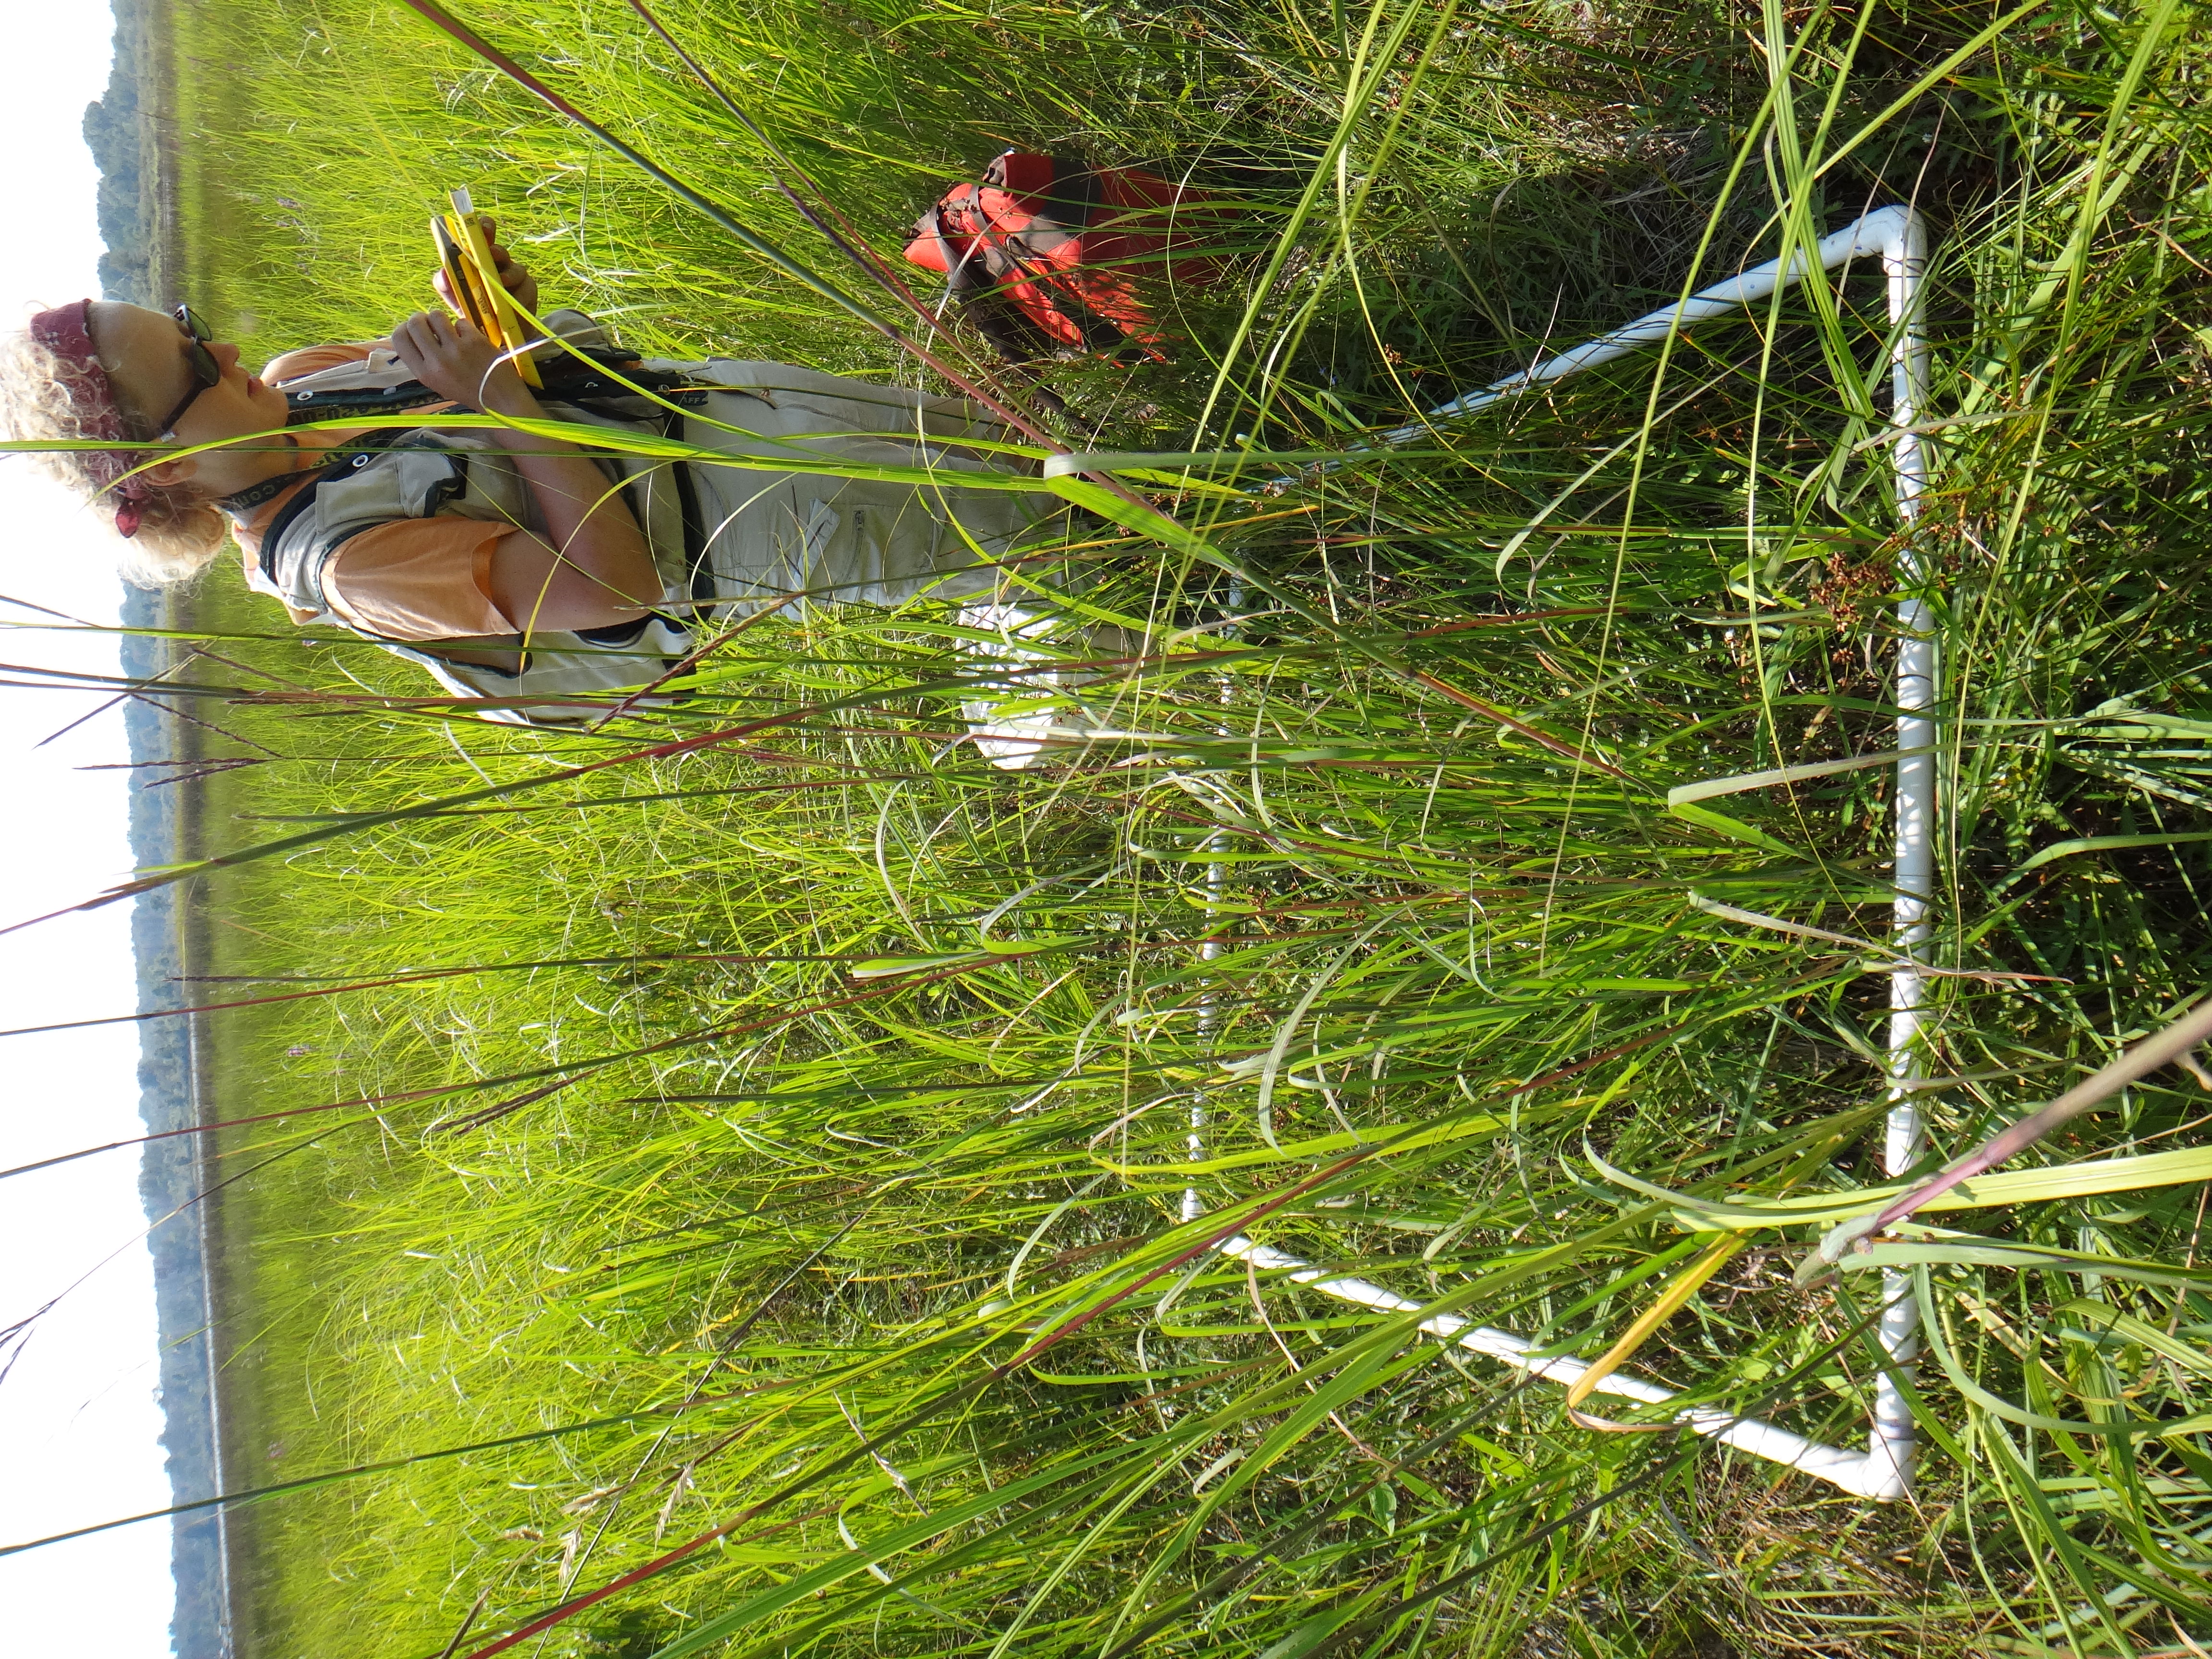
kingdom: Plantae
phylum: Tracheophyta
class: Magnoliopsida
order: Cornales
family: Cornaceae
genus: Cornus
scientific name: Cornus amomum
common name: Silky dogwood
